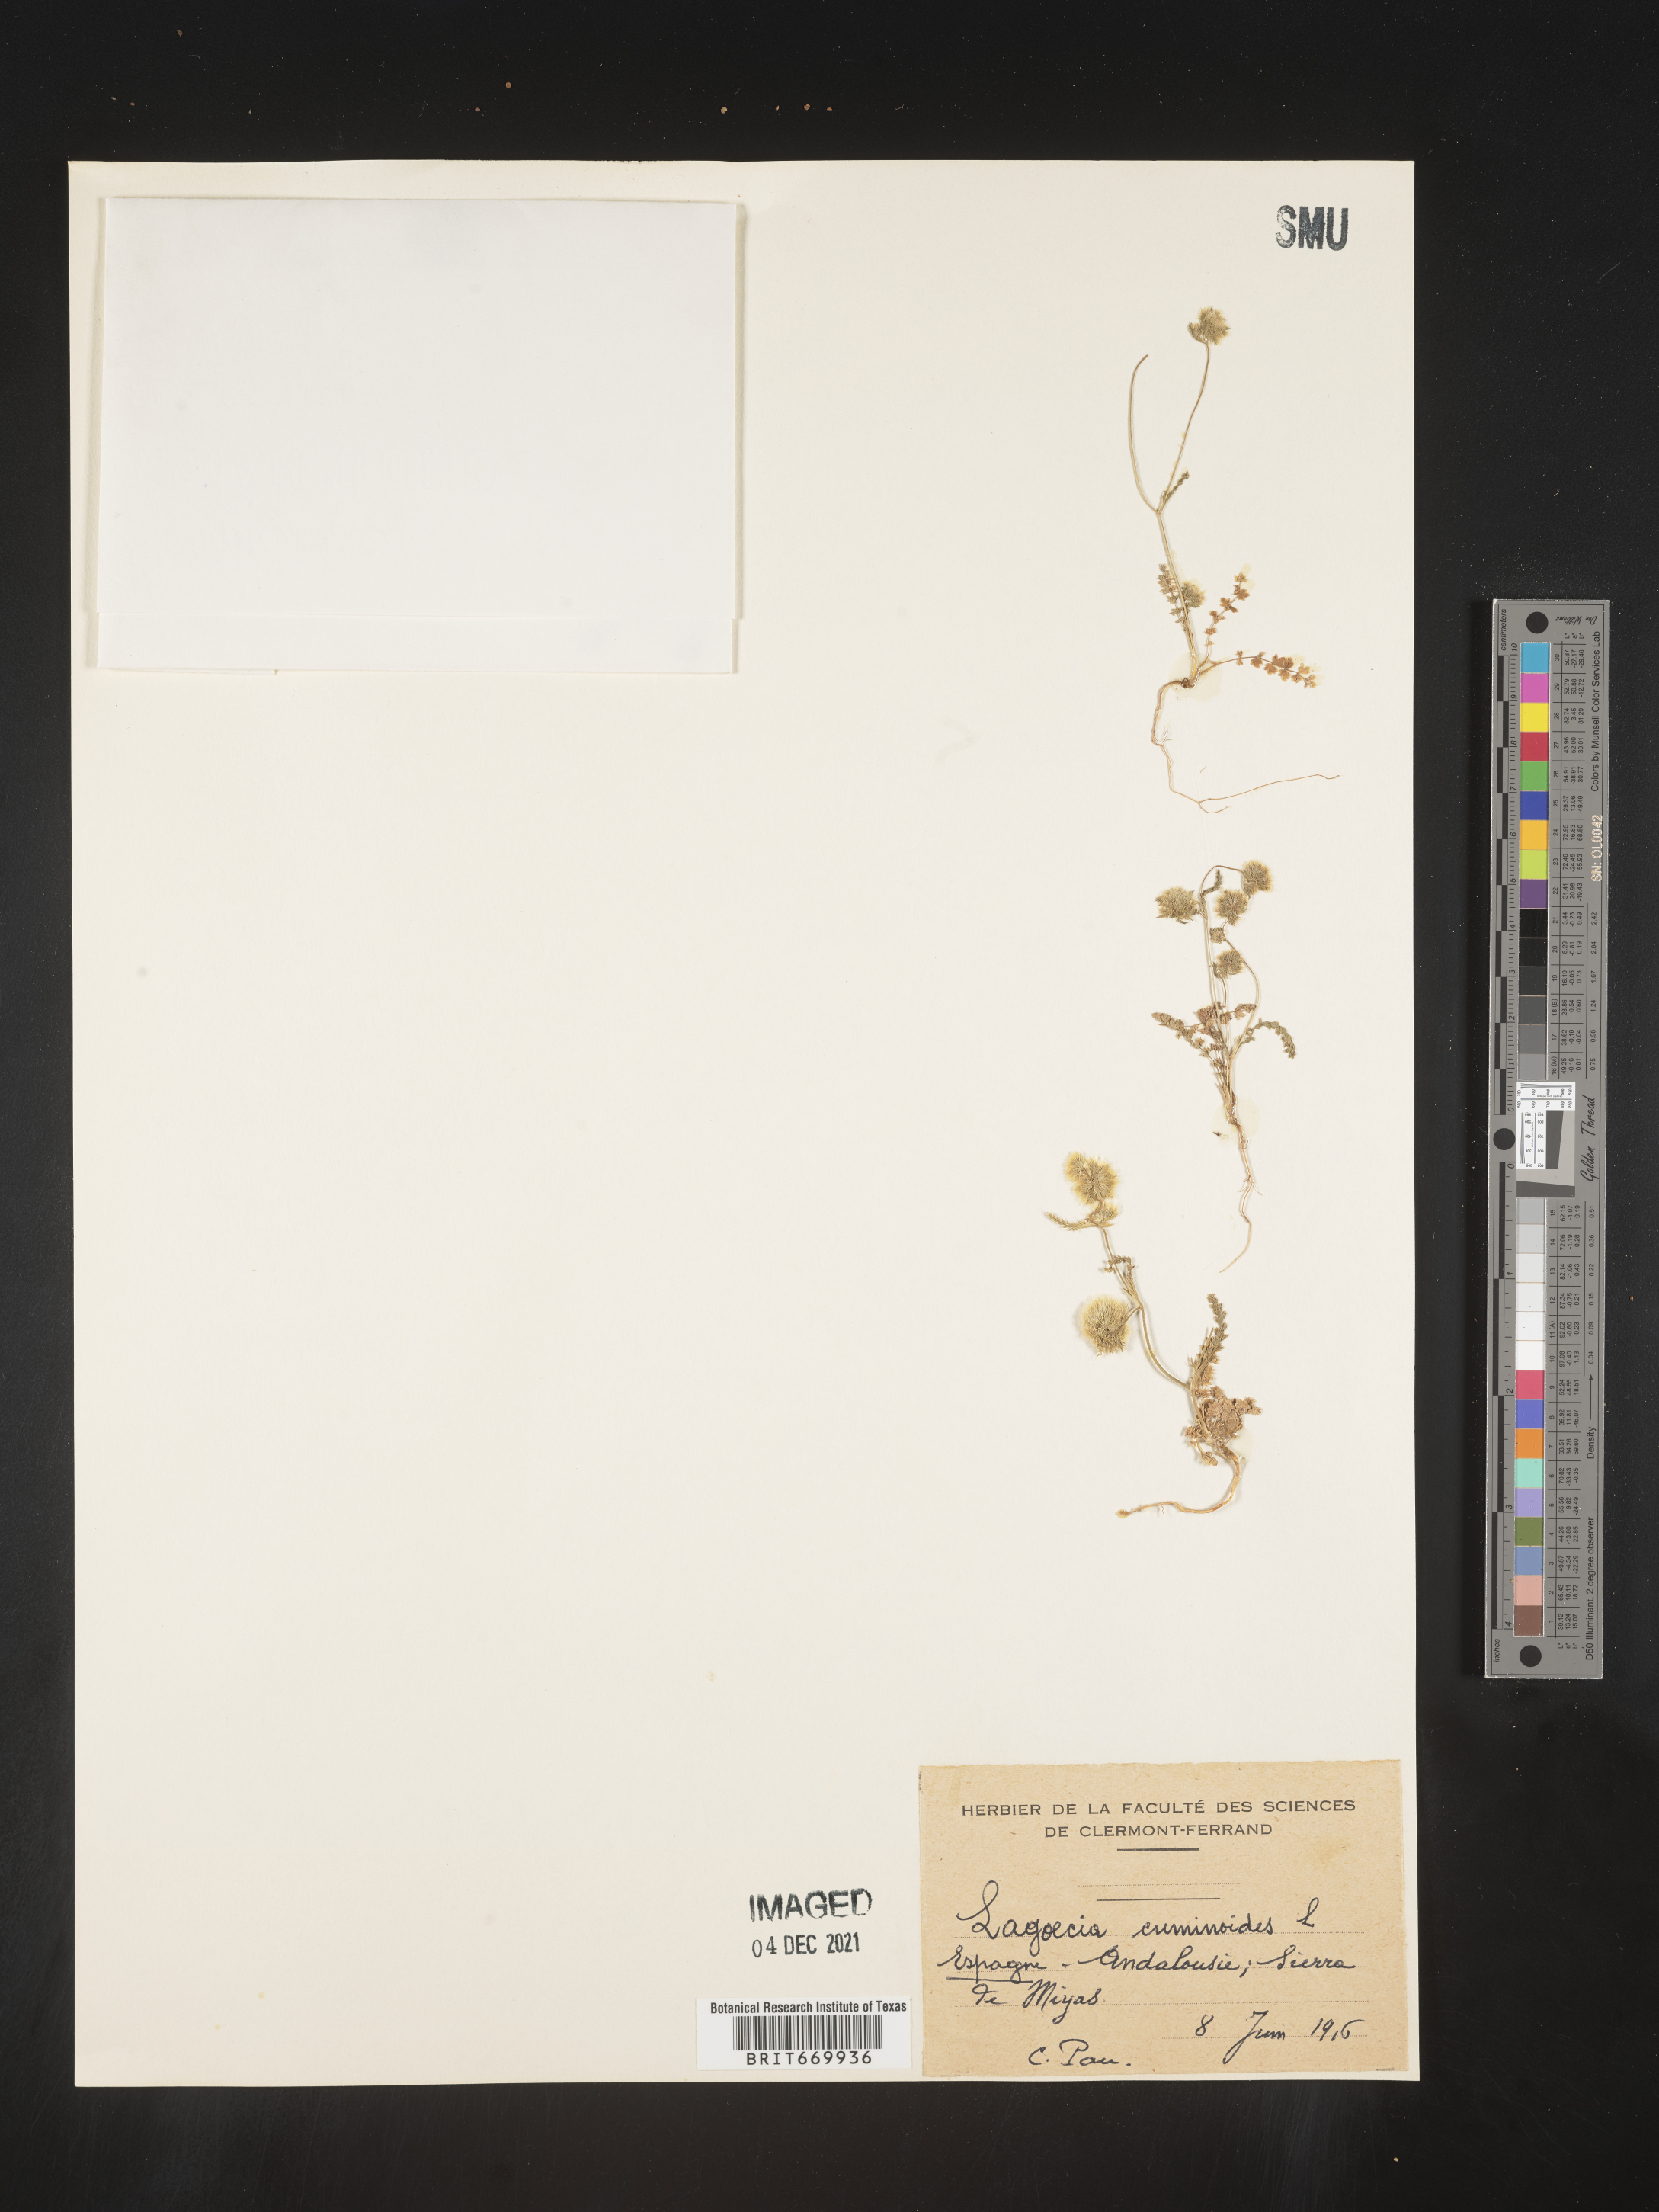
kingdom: Plantae
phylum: Tracheophyta
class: Magnoliopsida
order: Apiales
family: Apiaceae
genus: Lagoecia
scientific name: Lagoecia
